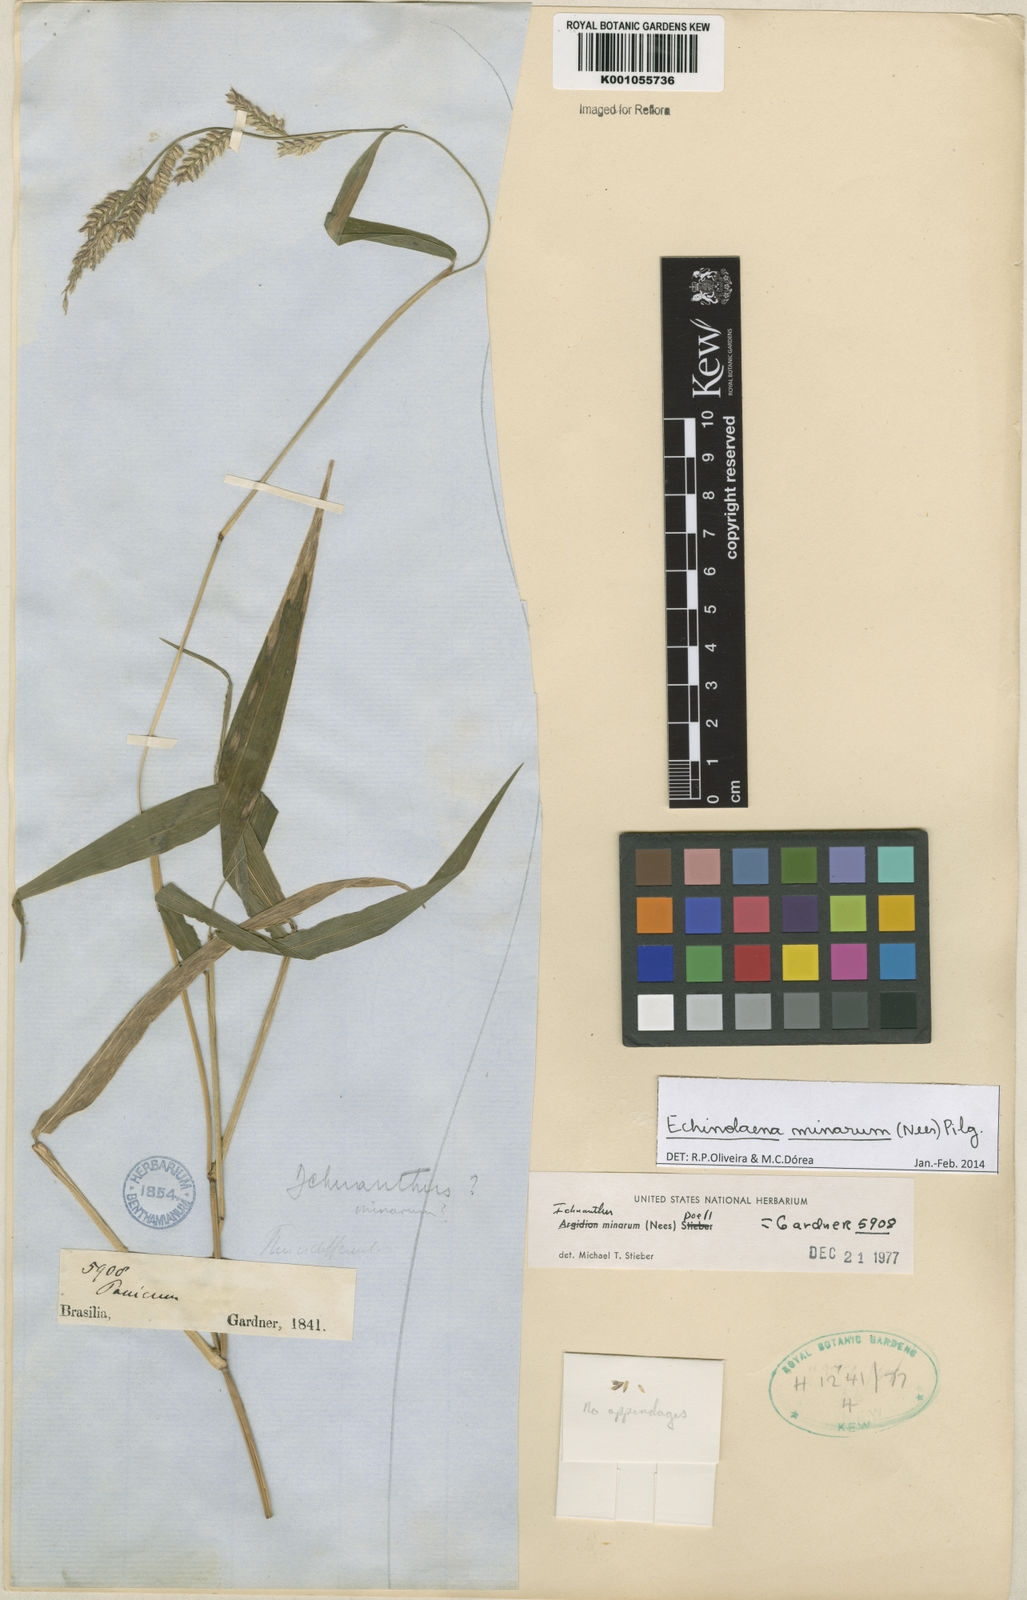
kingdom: Plantae
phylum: Tracheophyta
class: Liliopsida
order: Poales
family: Poaceae
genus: Oedochloa
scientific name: Oedochloa minarum
